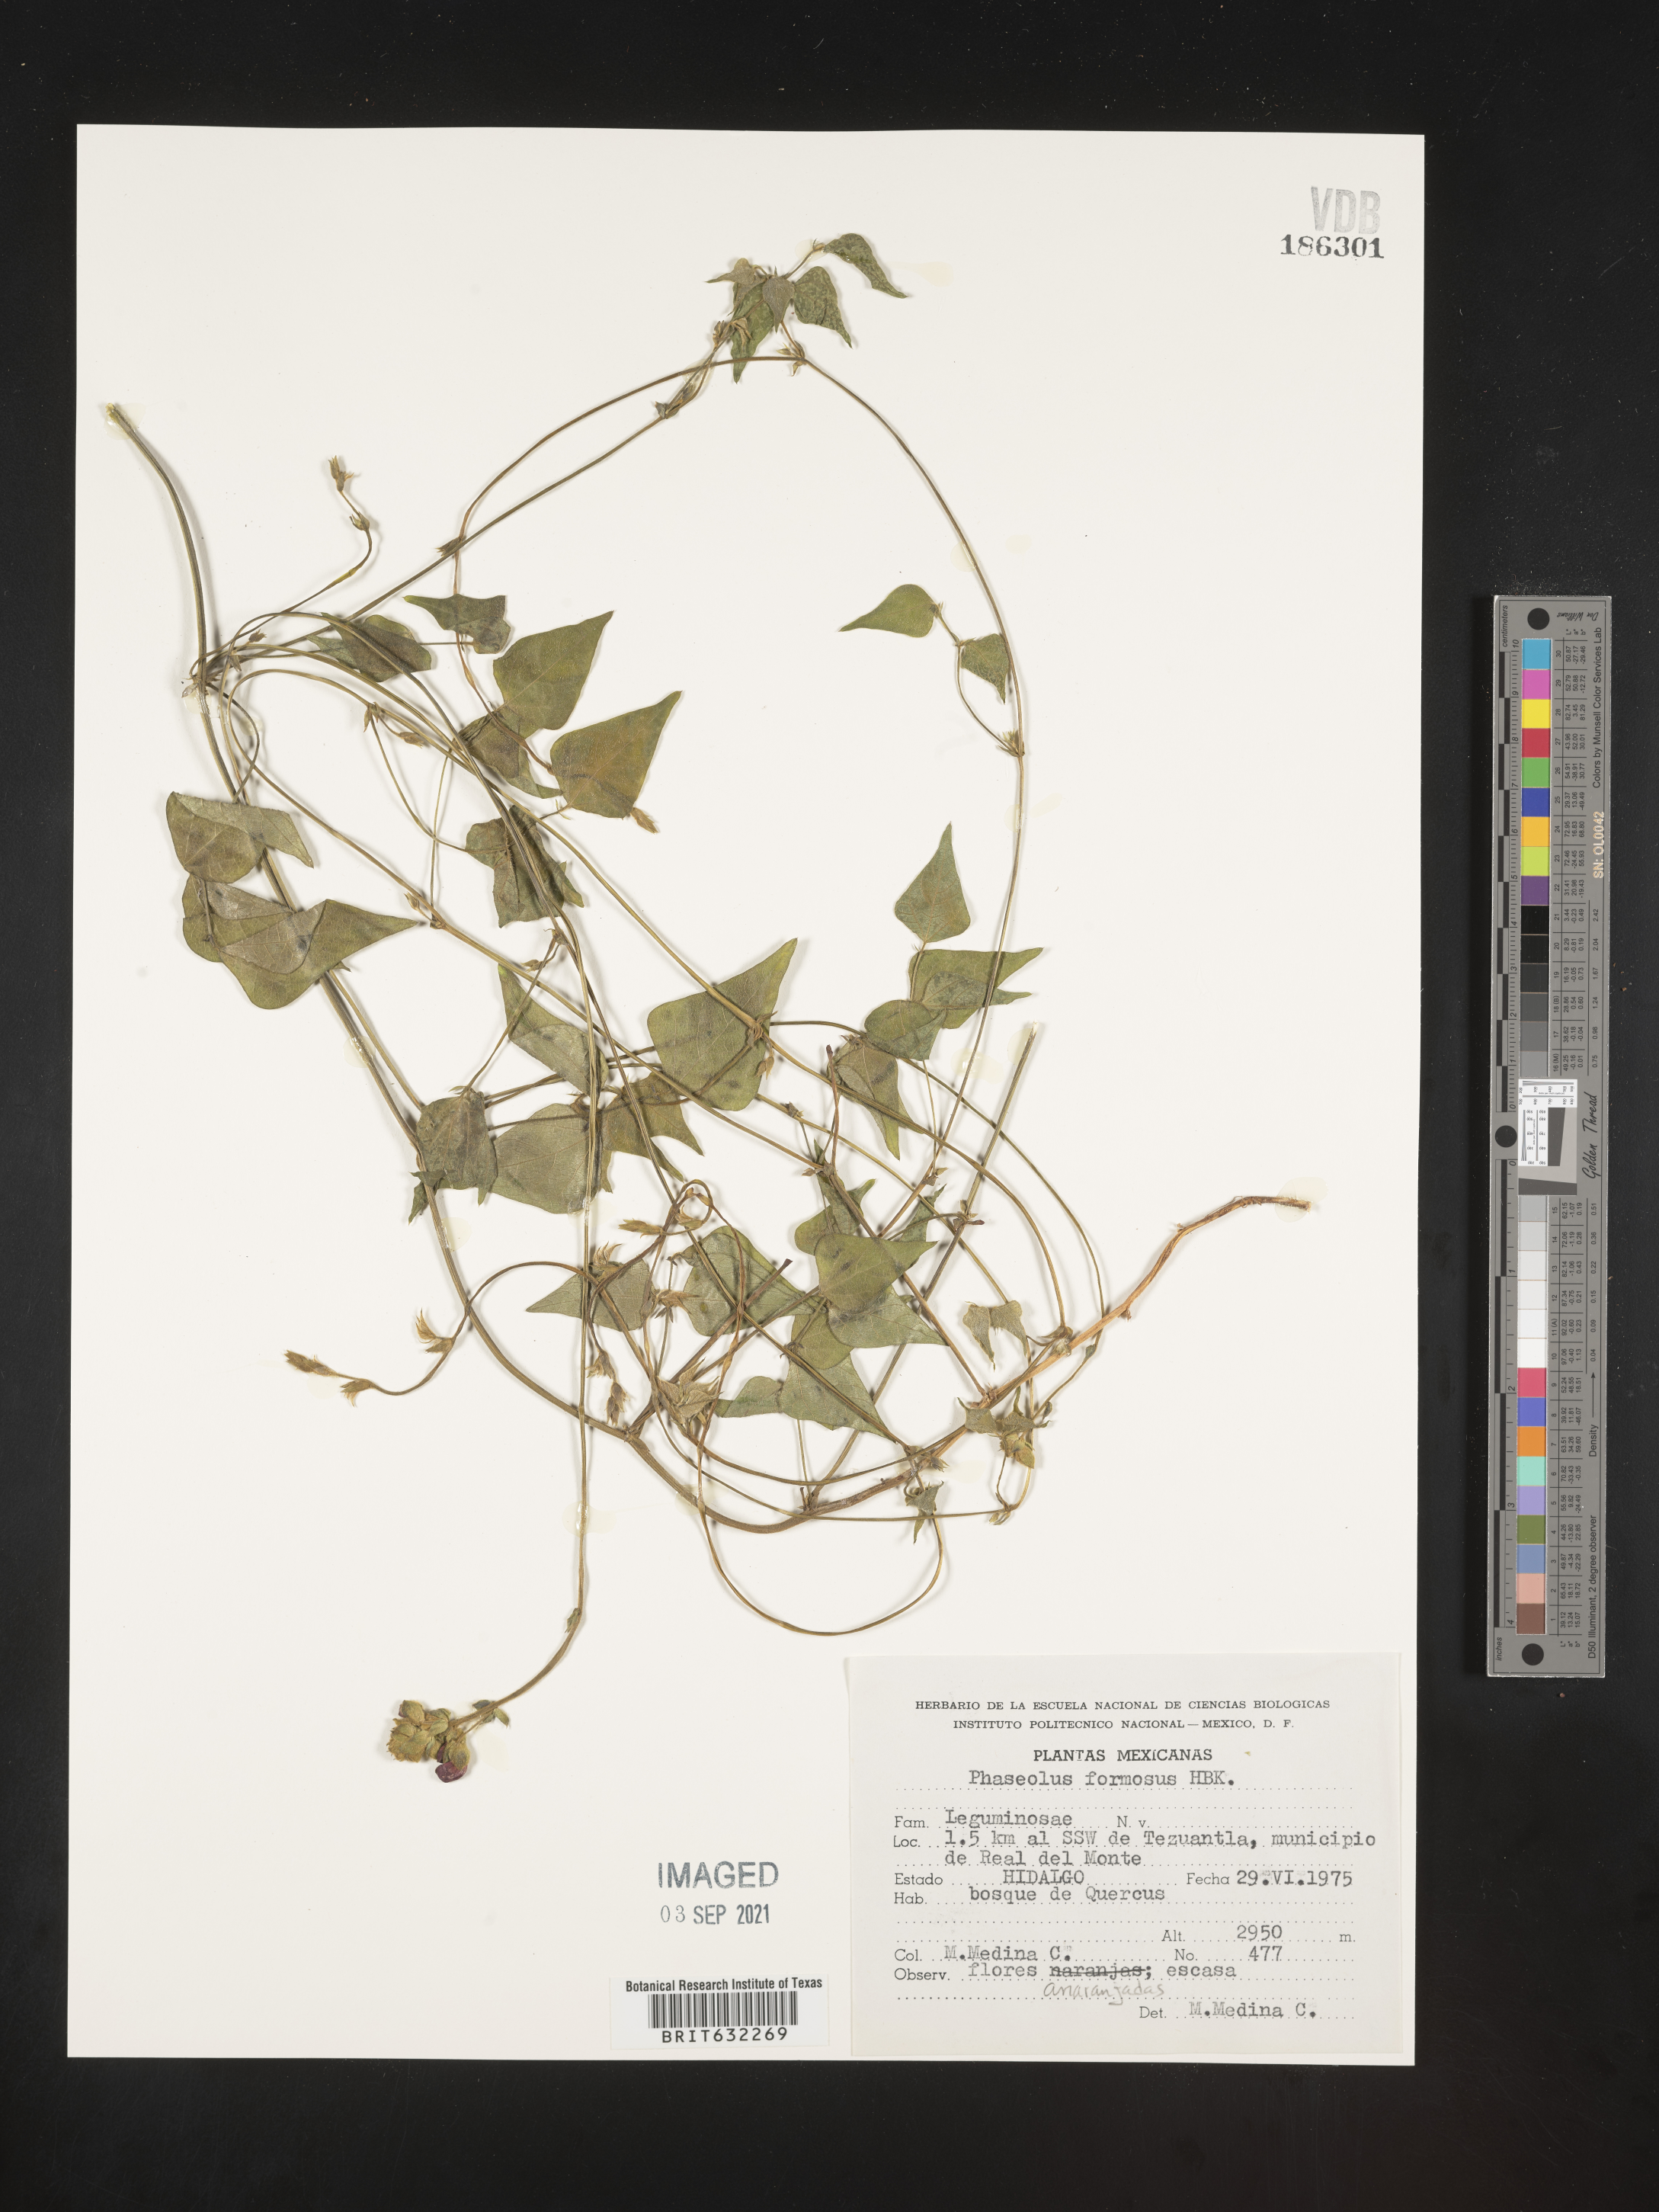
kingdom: Plantae
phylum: Tracheophyta
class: Magnoliopsida
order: Fabales
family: Fabaceae
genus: Phaseolus
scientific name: Phaseolus
